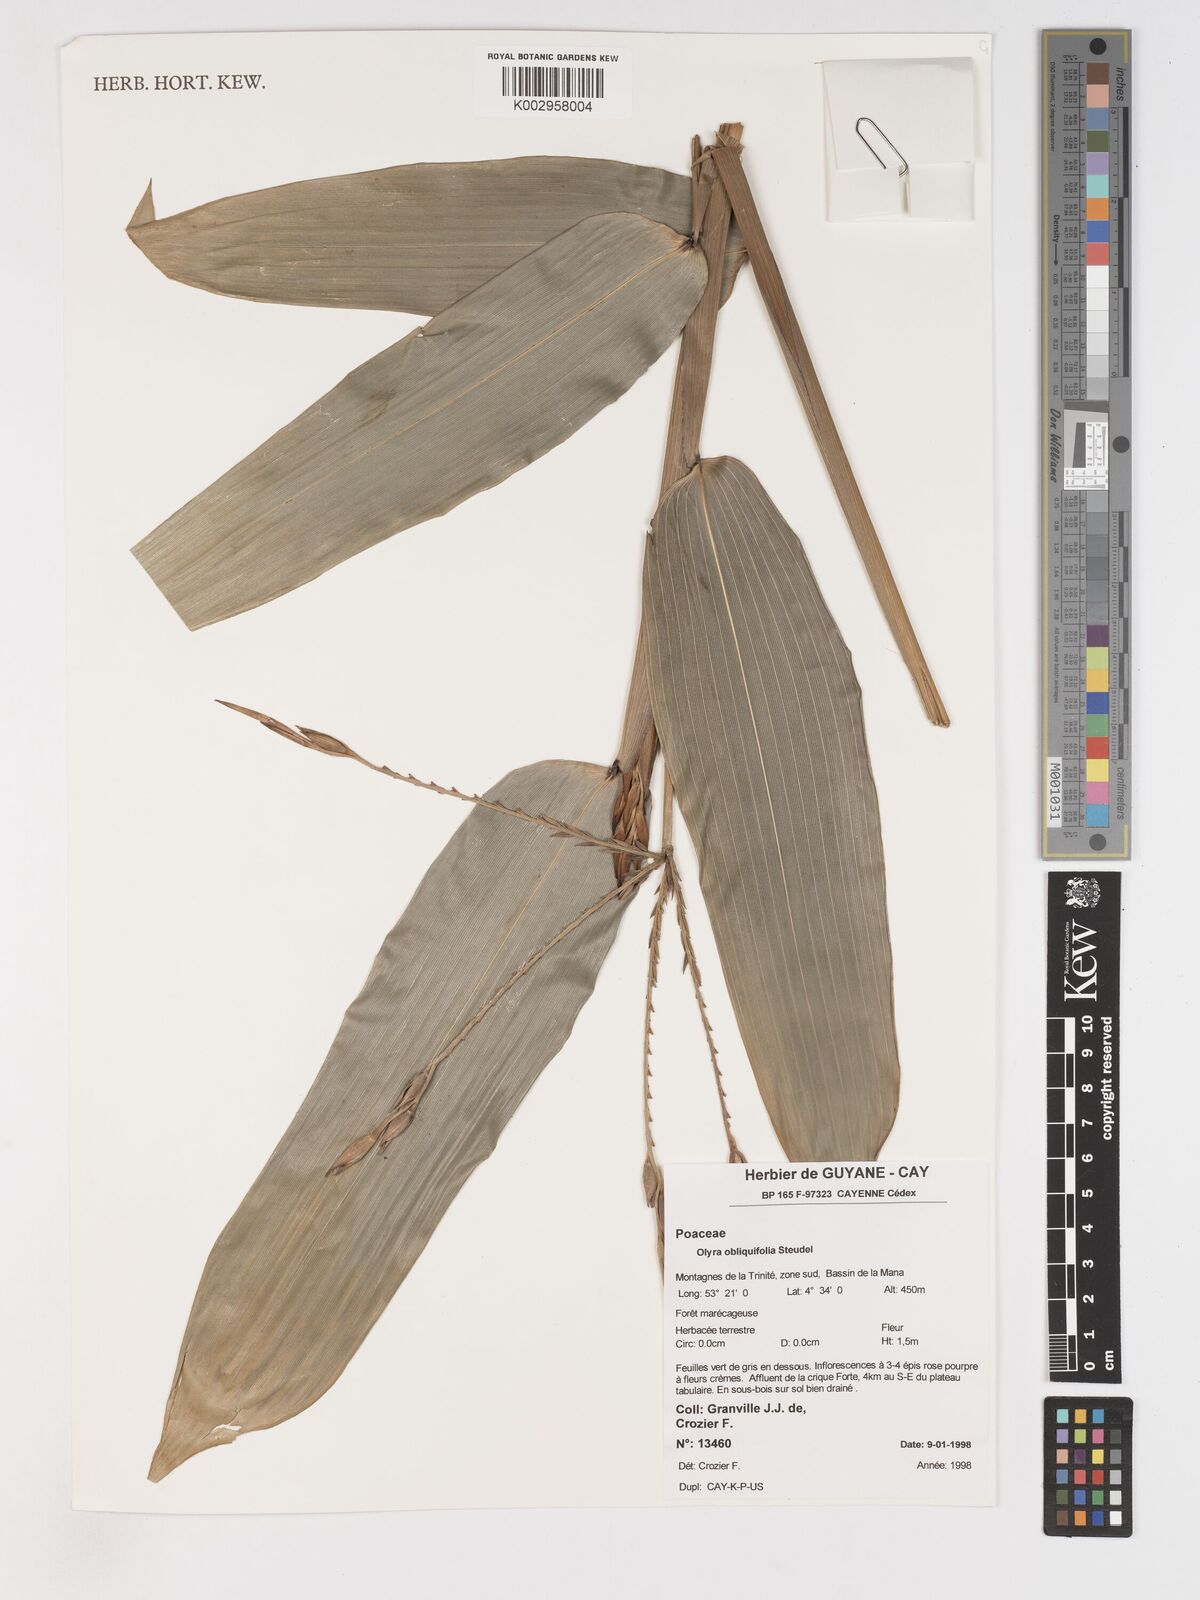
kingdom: Plantae
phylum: Tracheophyta
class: Liliopsida
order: Poales
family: Poaceae
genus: Olyra
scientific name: Olyra obliquifolia
